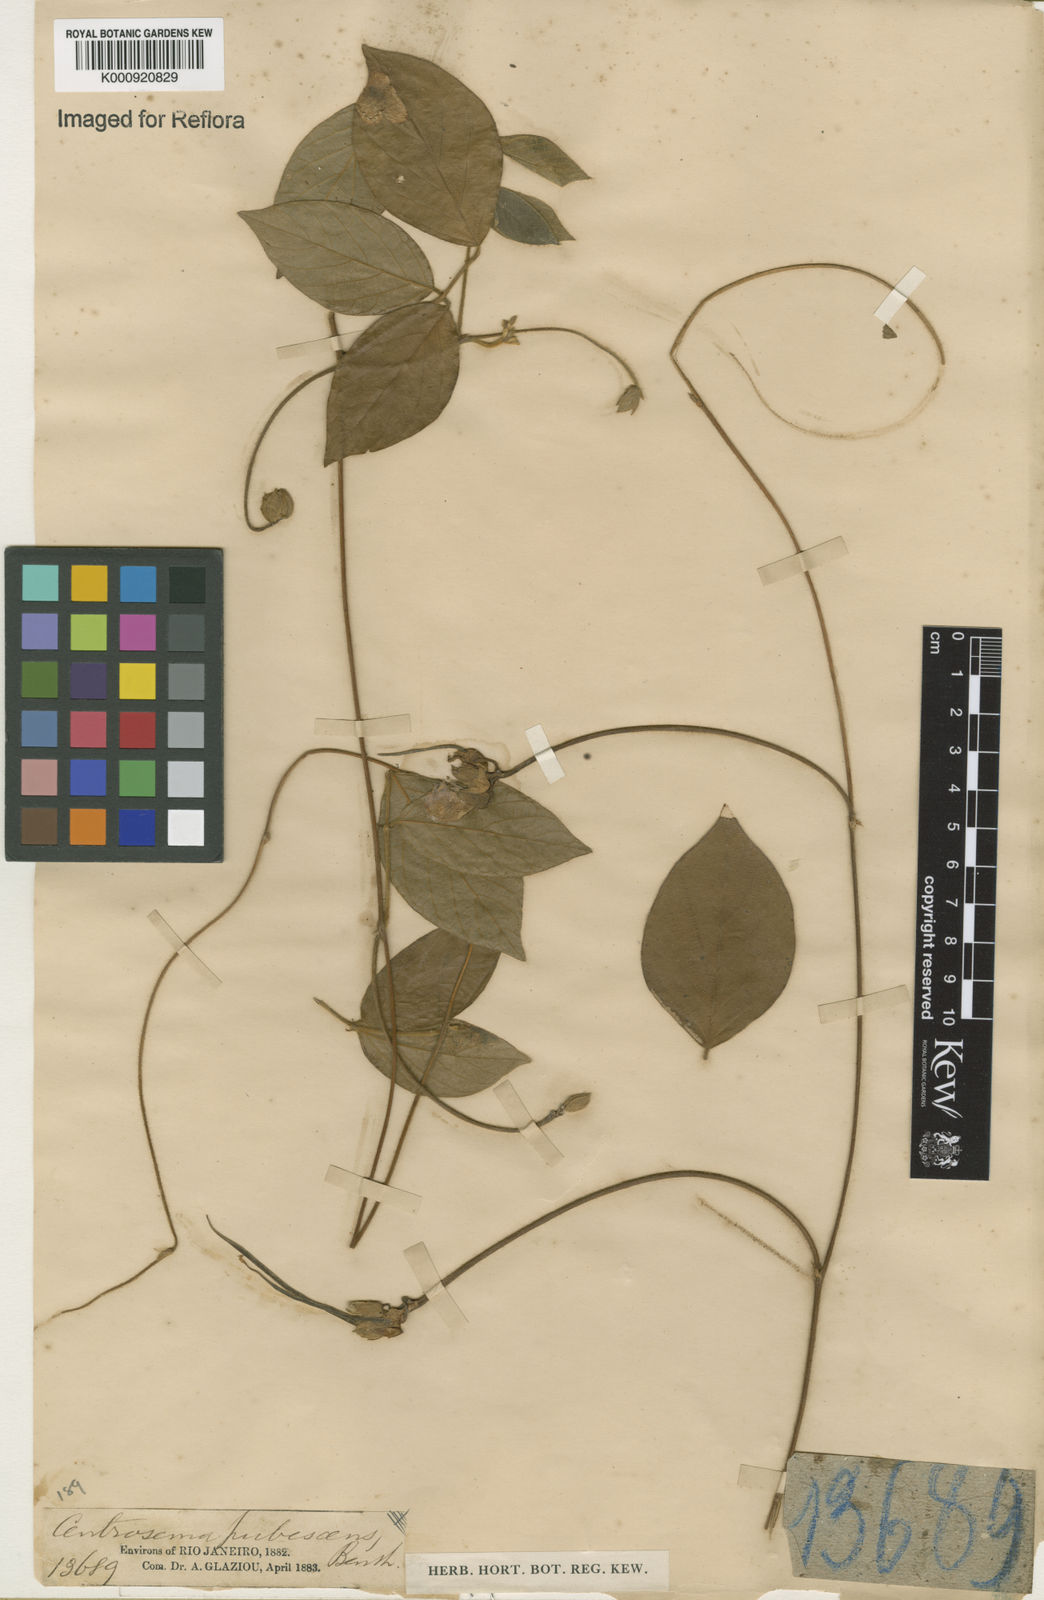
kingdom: Plantae
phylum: Tracheophyta
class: Magnoliopsida
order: Fabales
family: Fabaceae
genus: Centrosema
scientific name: Centrosema pubescens
